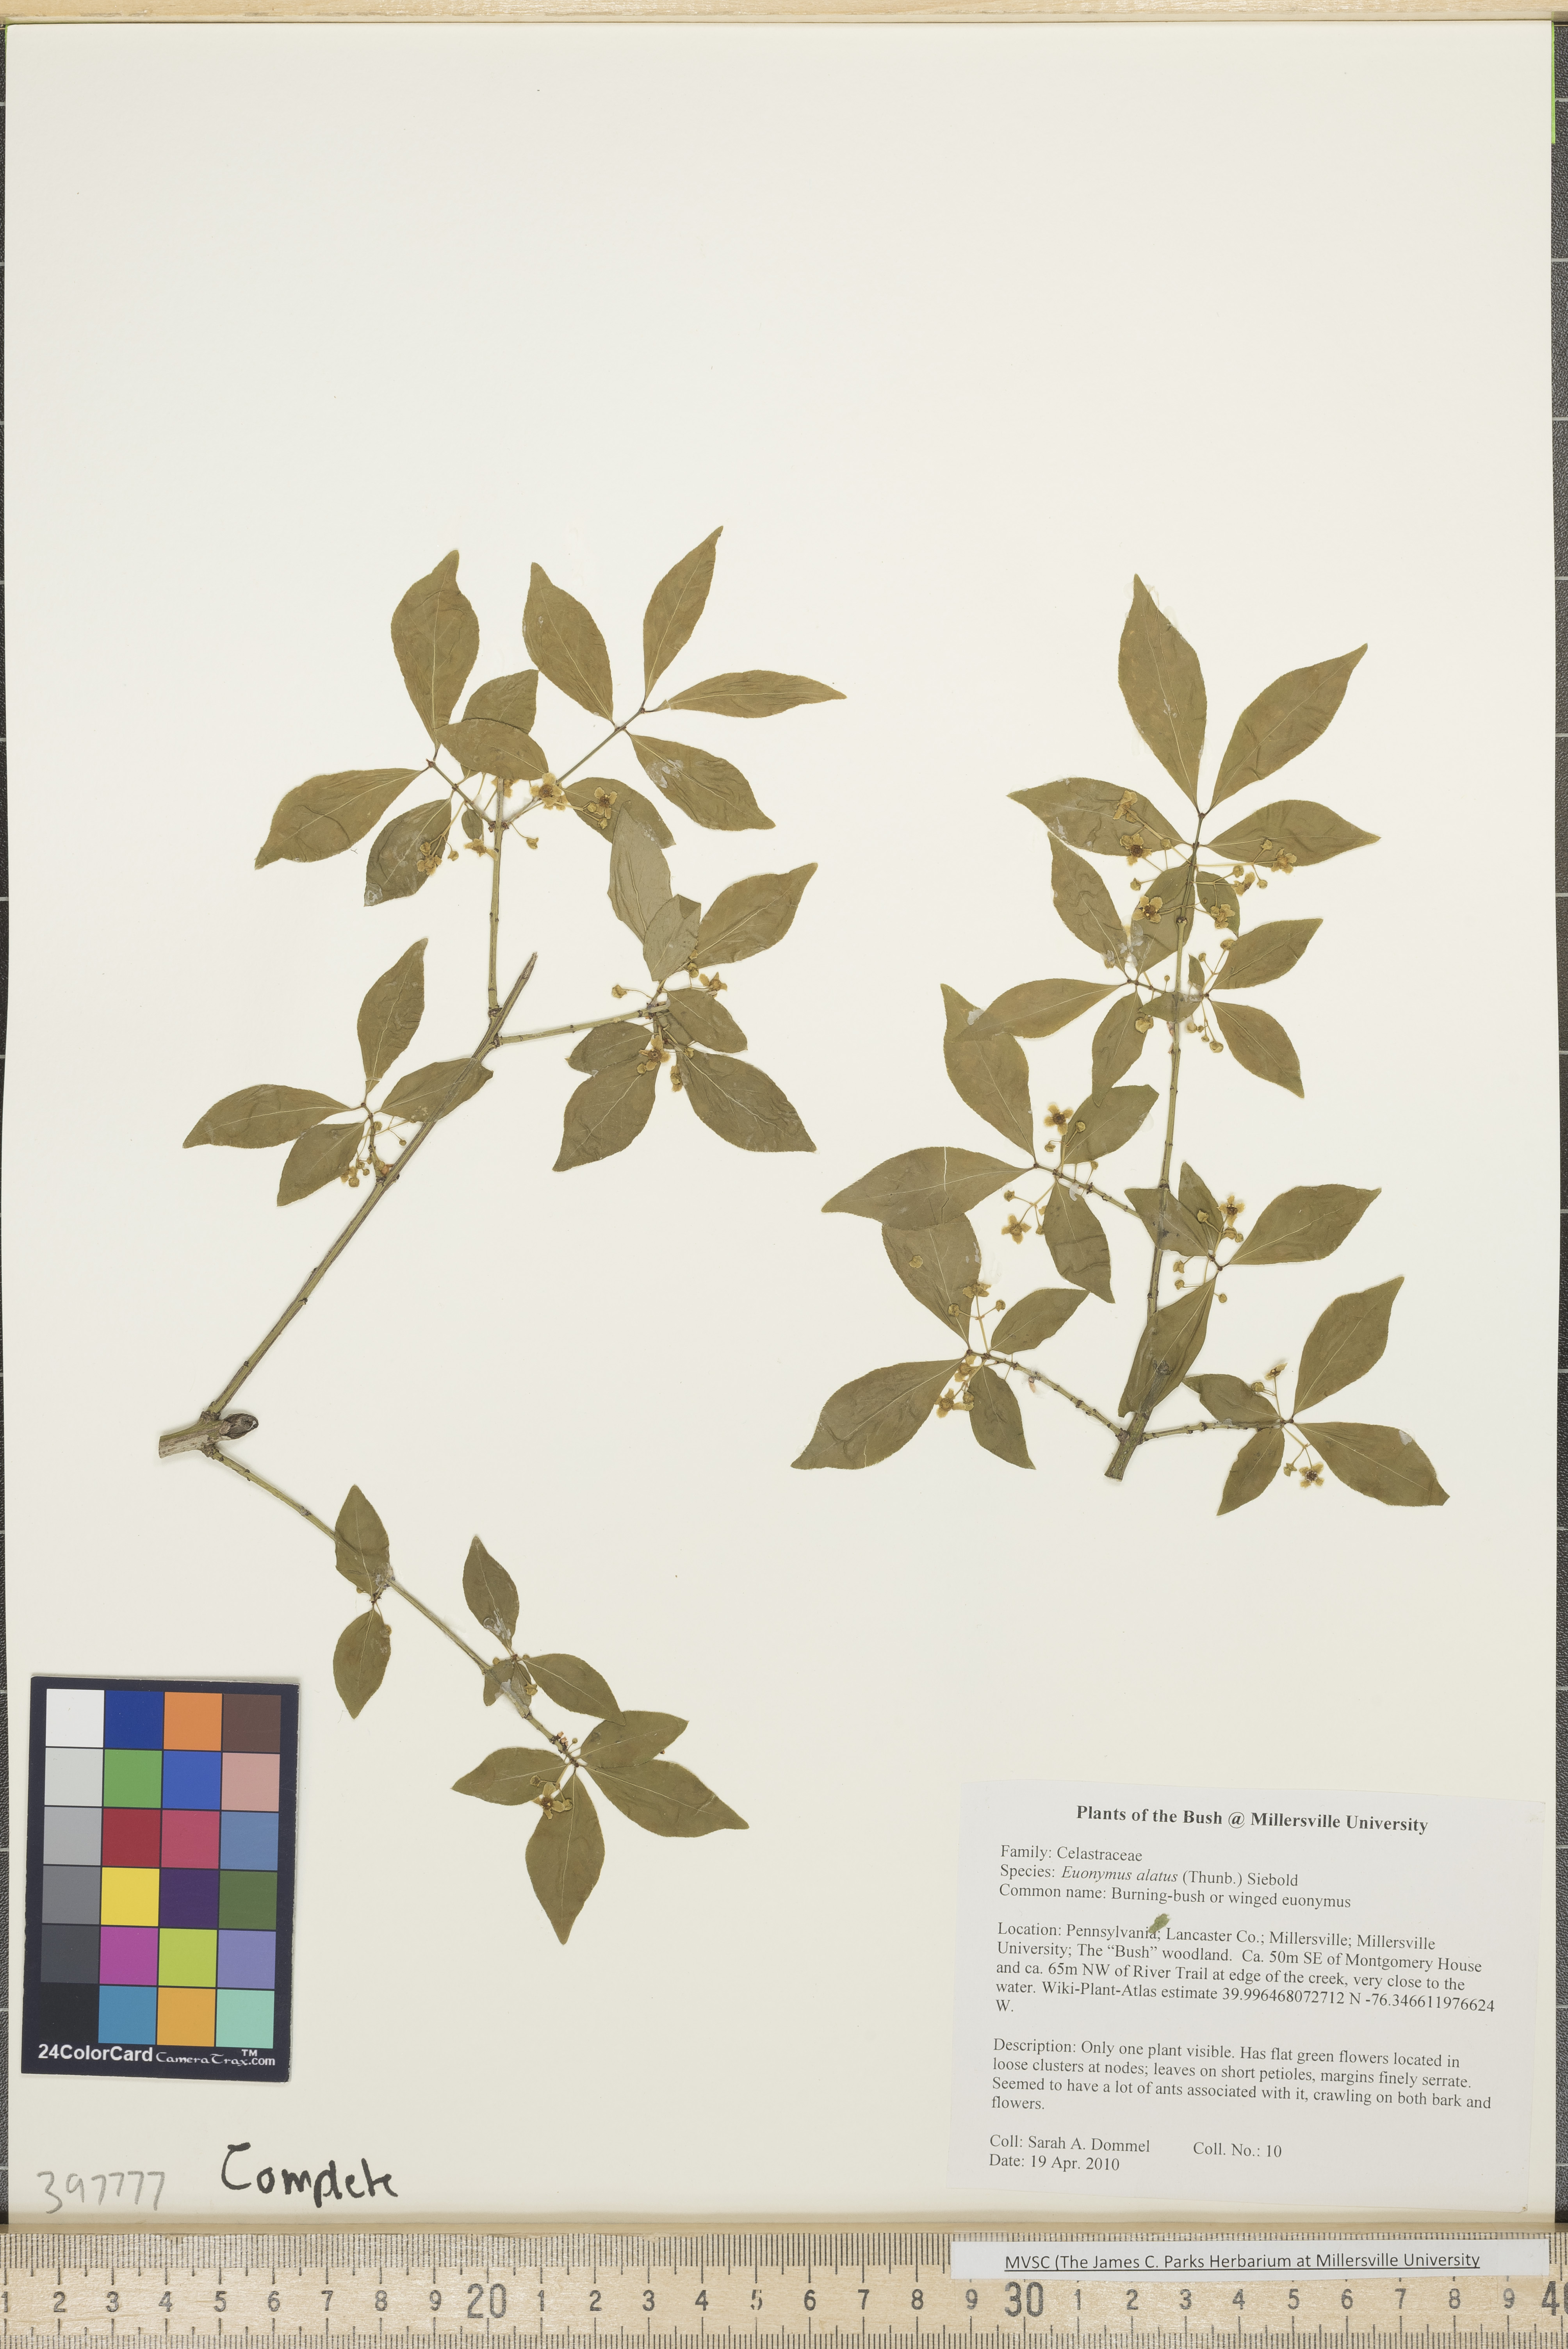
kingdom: Plantae
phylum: Tracheophyta
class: Magnoliopsida
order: Celastrales
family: Celastraceae
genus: Euonymus
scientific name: Euonymus alatus
